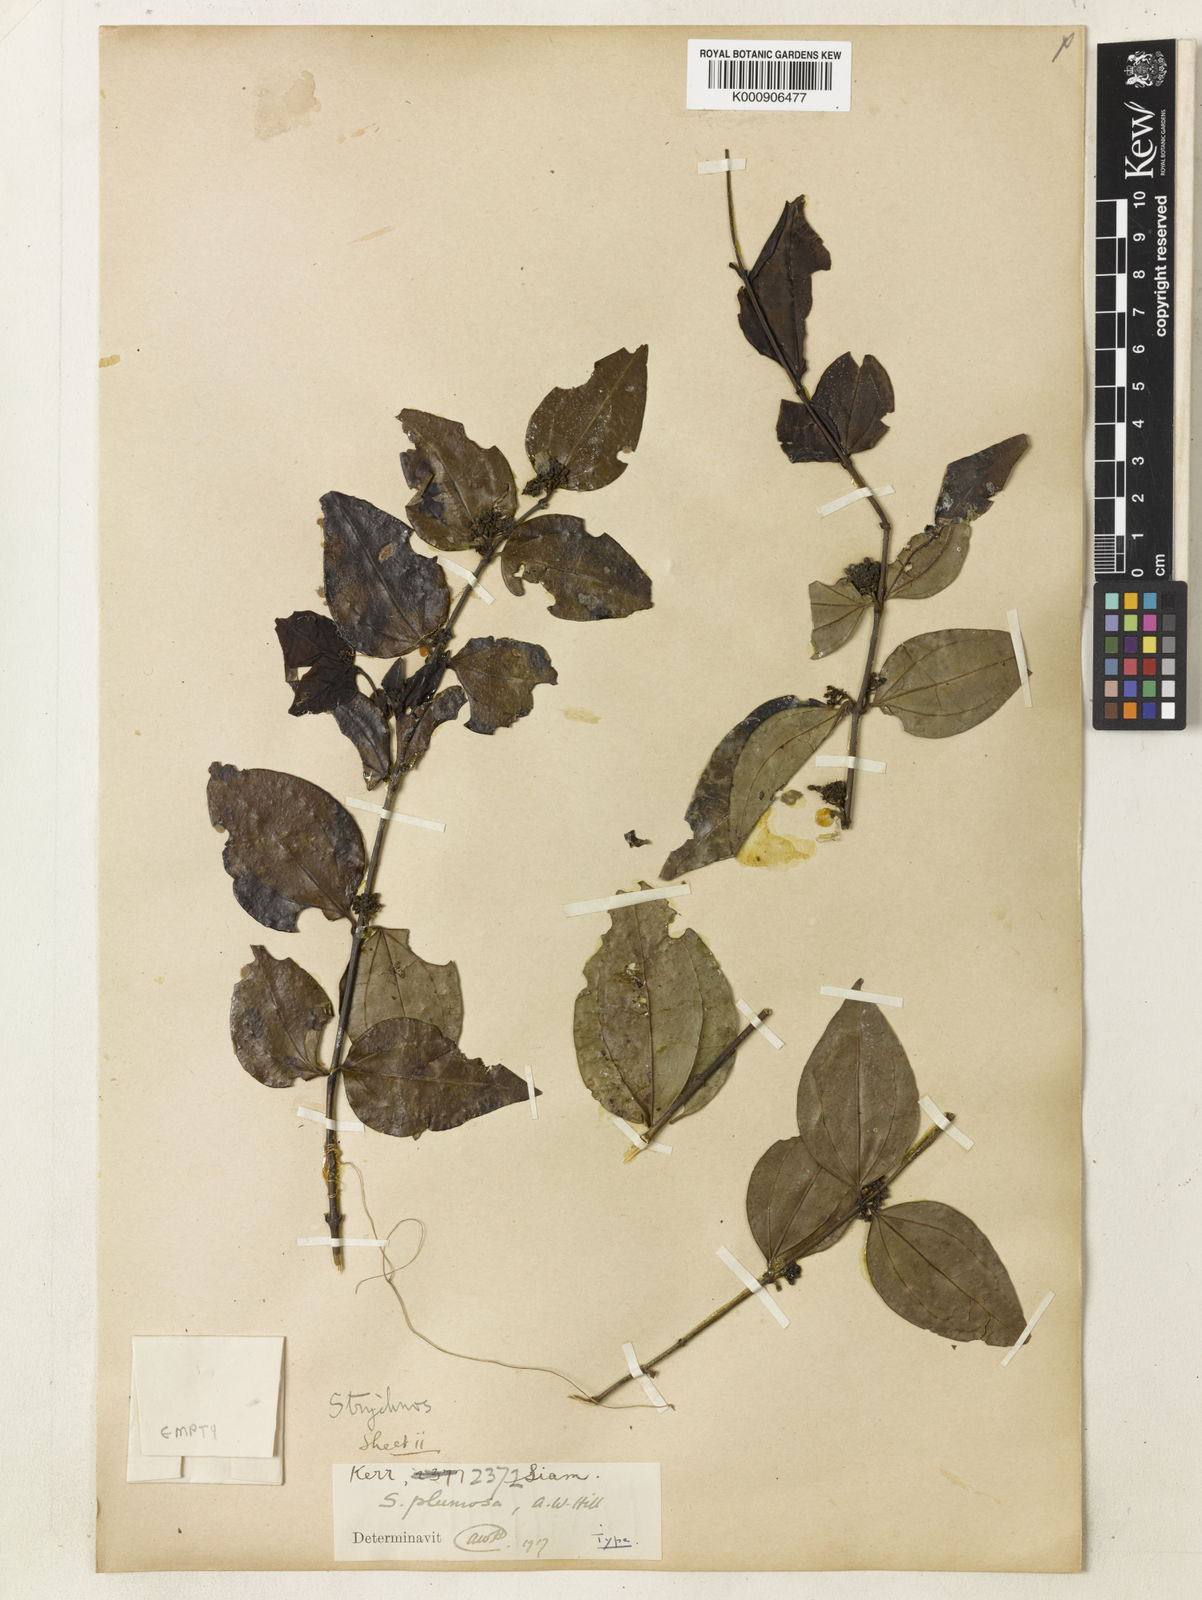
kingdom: Plantae
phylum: Tracheophyta
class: Magnoliopsida
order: Gentianales
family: Loganiaceae
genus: Strychnos
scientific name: Strychnos axillaris
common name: Strychninebush
